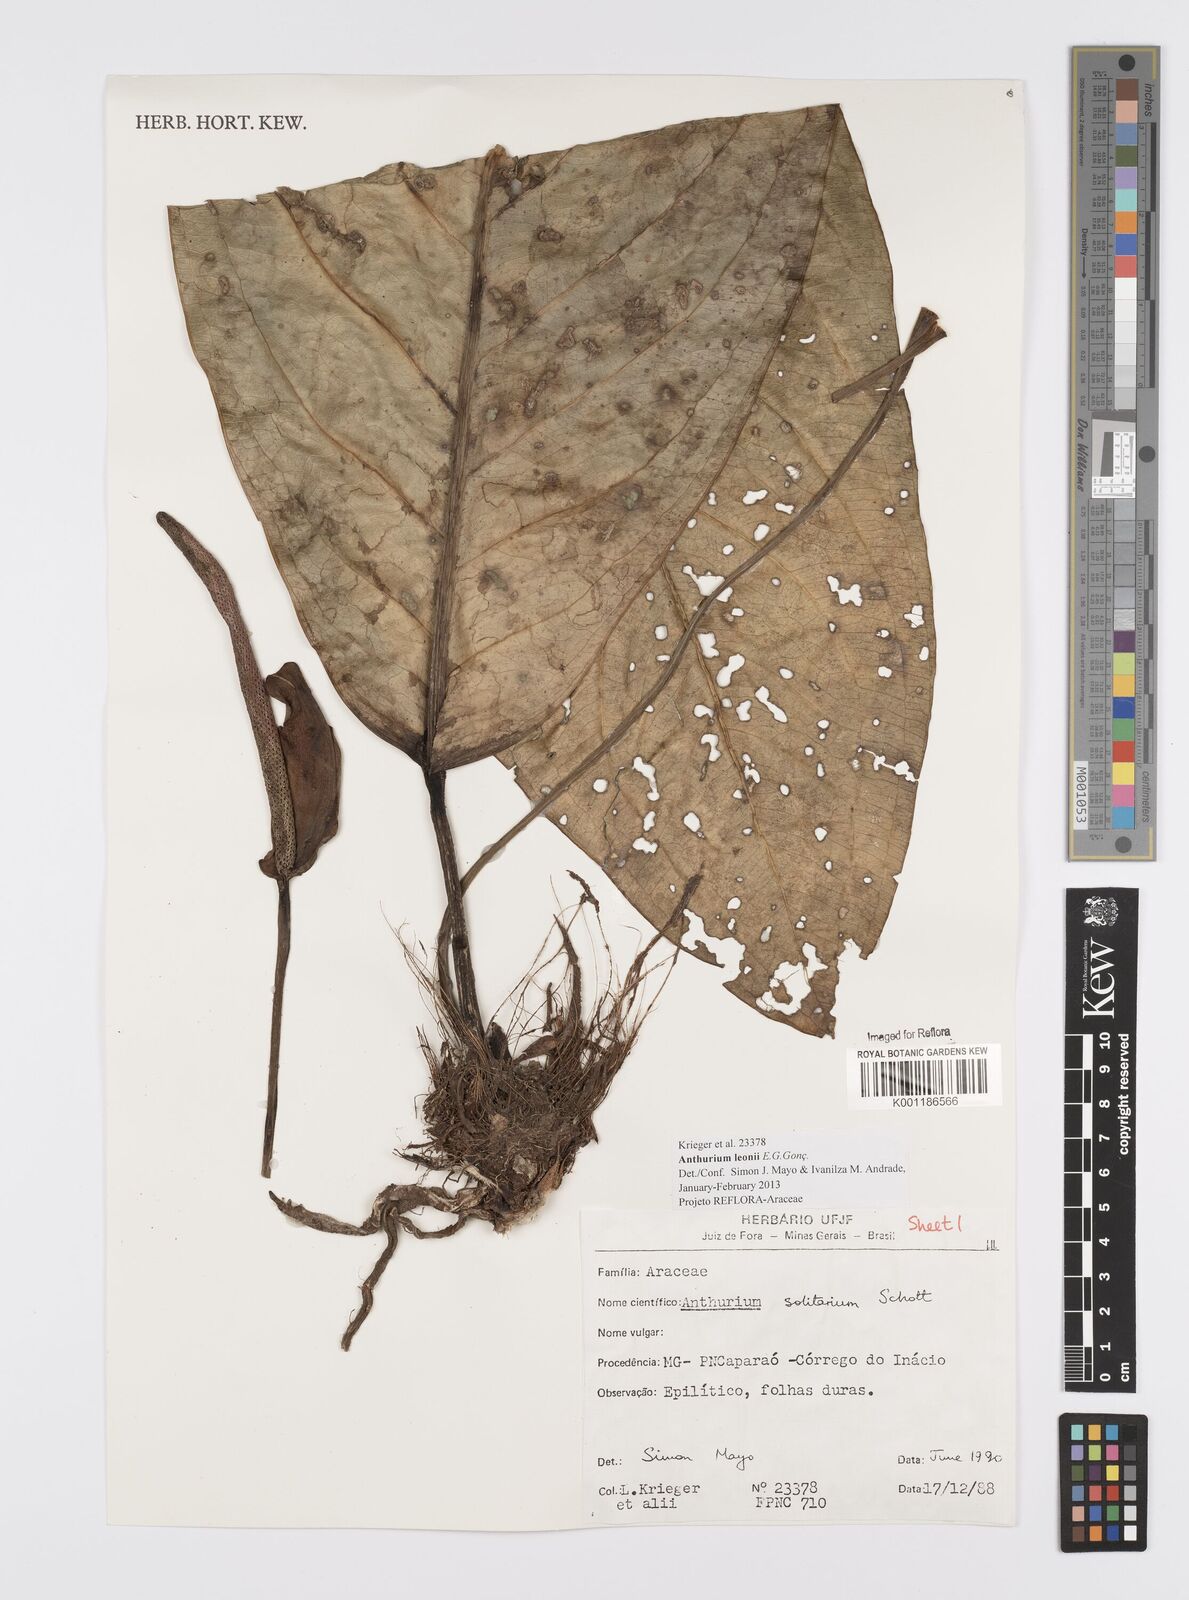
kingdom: Plantae
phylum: Tracheophyta
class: Liliopsida
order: Alismatales
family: Araceae
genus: Anthurium
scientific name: Anthurium leonii
